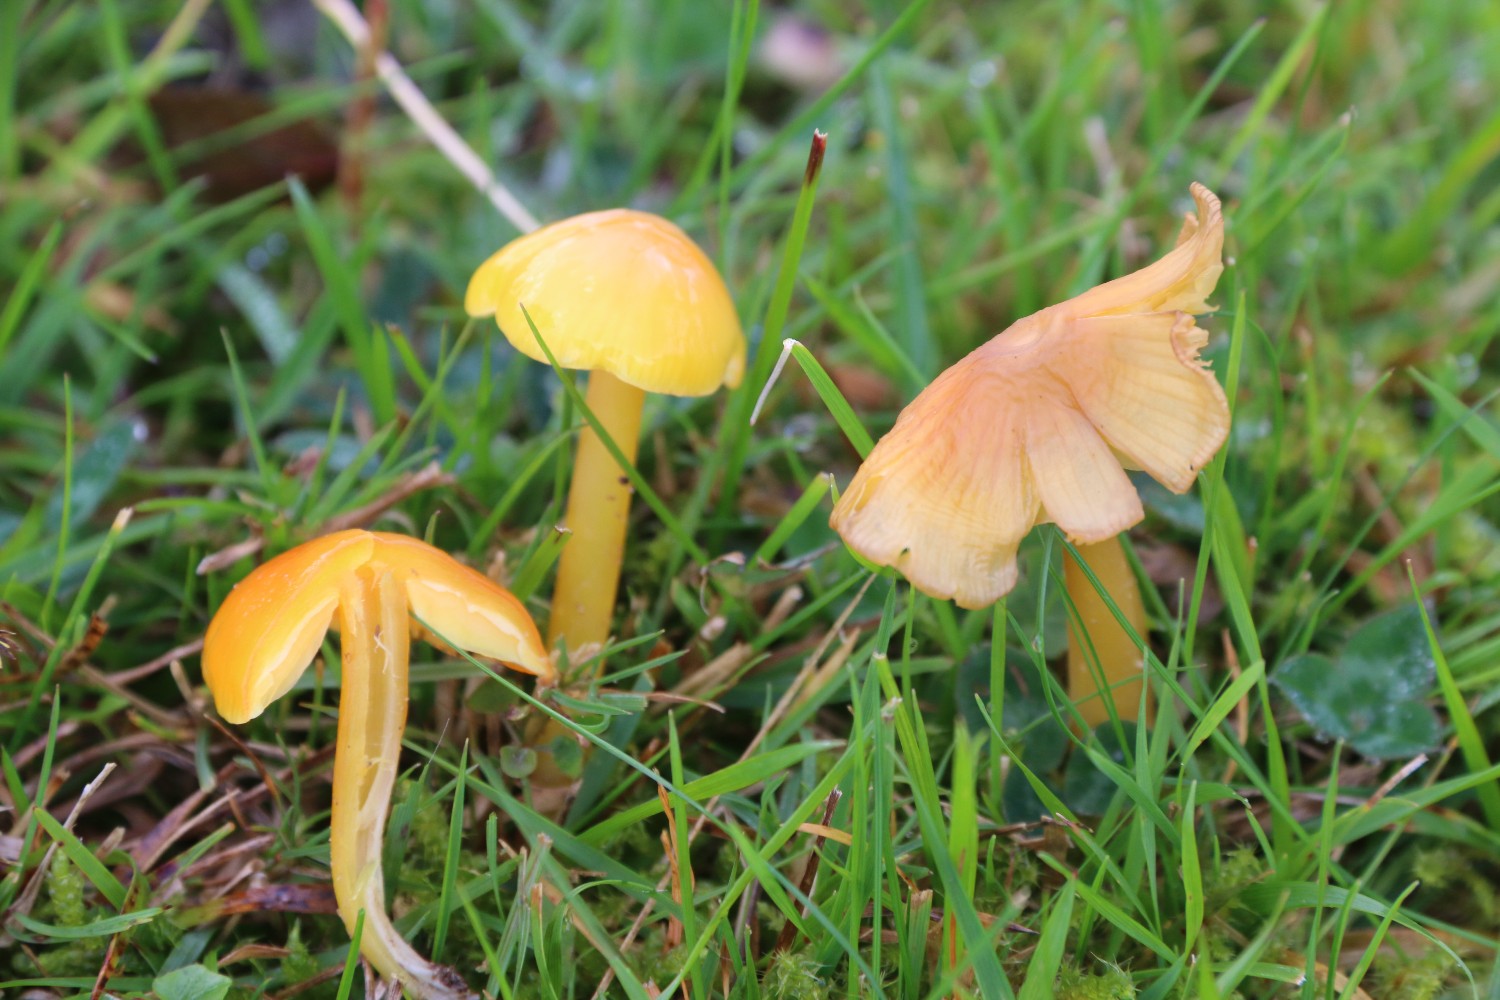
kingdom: Fungi
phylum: Basidiomycota
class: Agaricomycetes
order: Agaricales
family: Hygrophoraceae
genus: Hygrocybe
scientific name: Hygrocybe chlorophana
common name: gul vokshat
